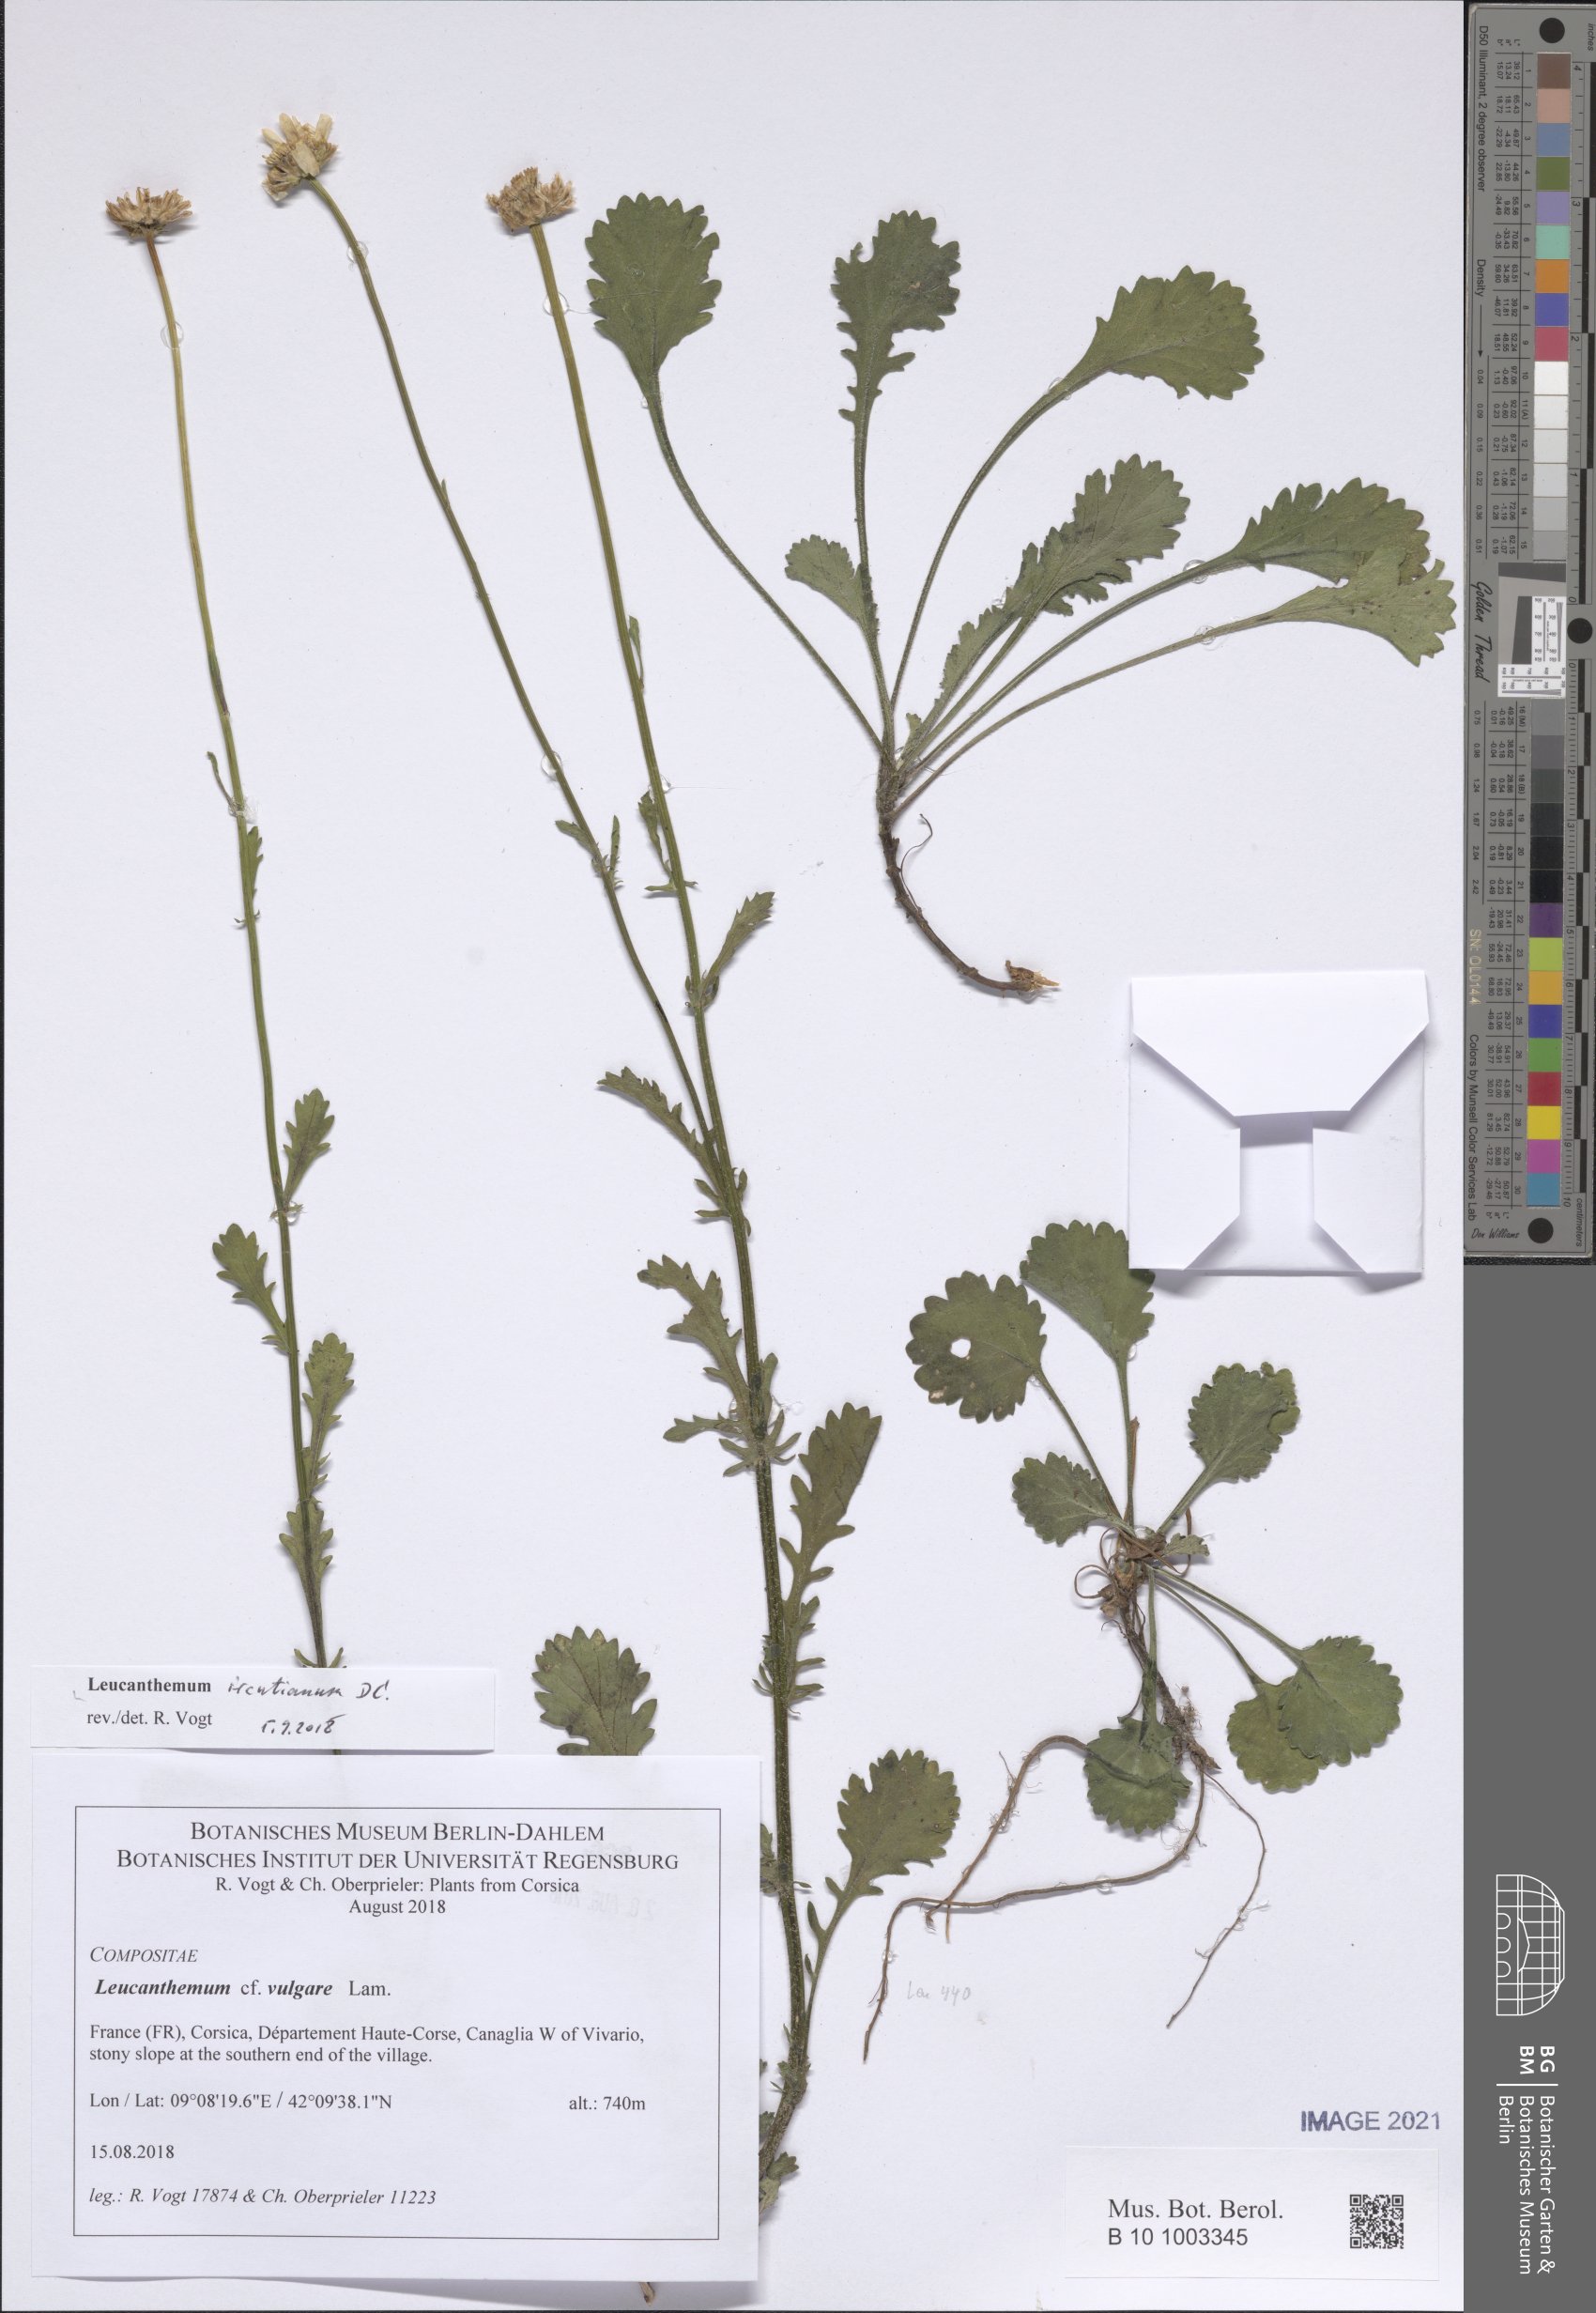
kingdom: Plantae
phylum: Tracheophyta
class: Magnoliopsida
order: Asterales
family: Asteraceae
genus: Leucanthemum
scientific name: Leucanthemum ircutianum
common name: Daisy
